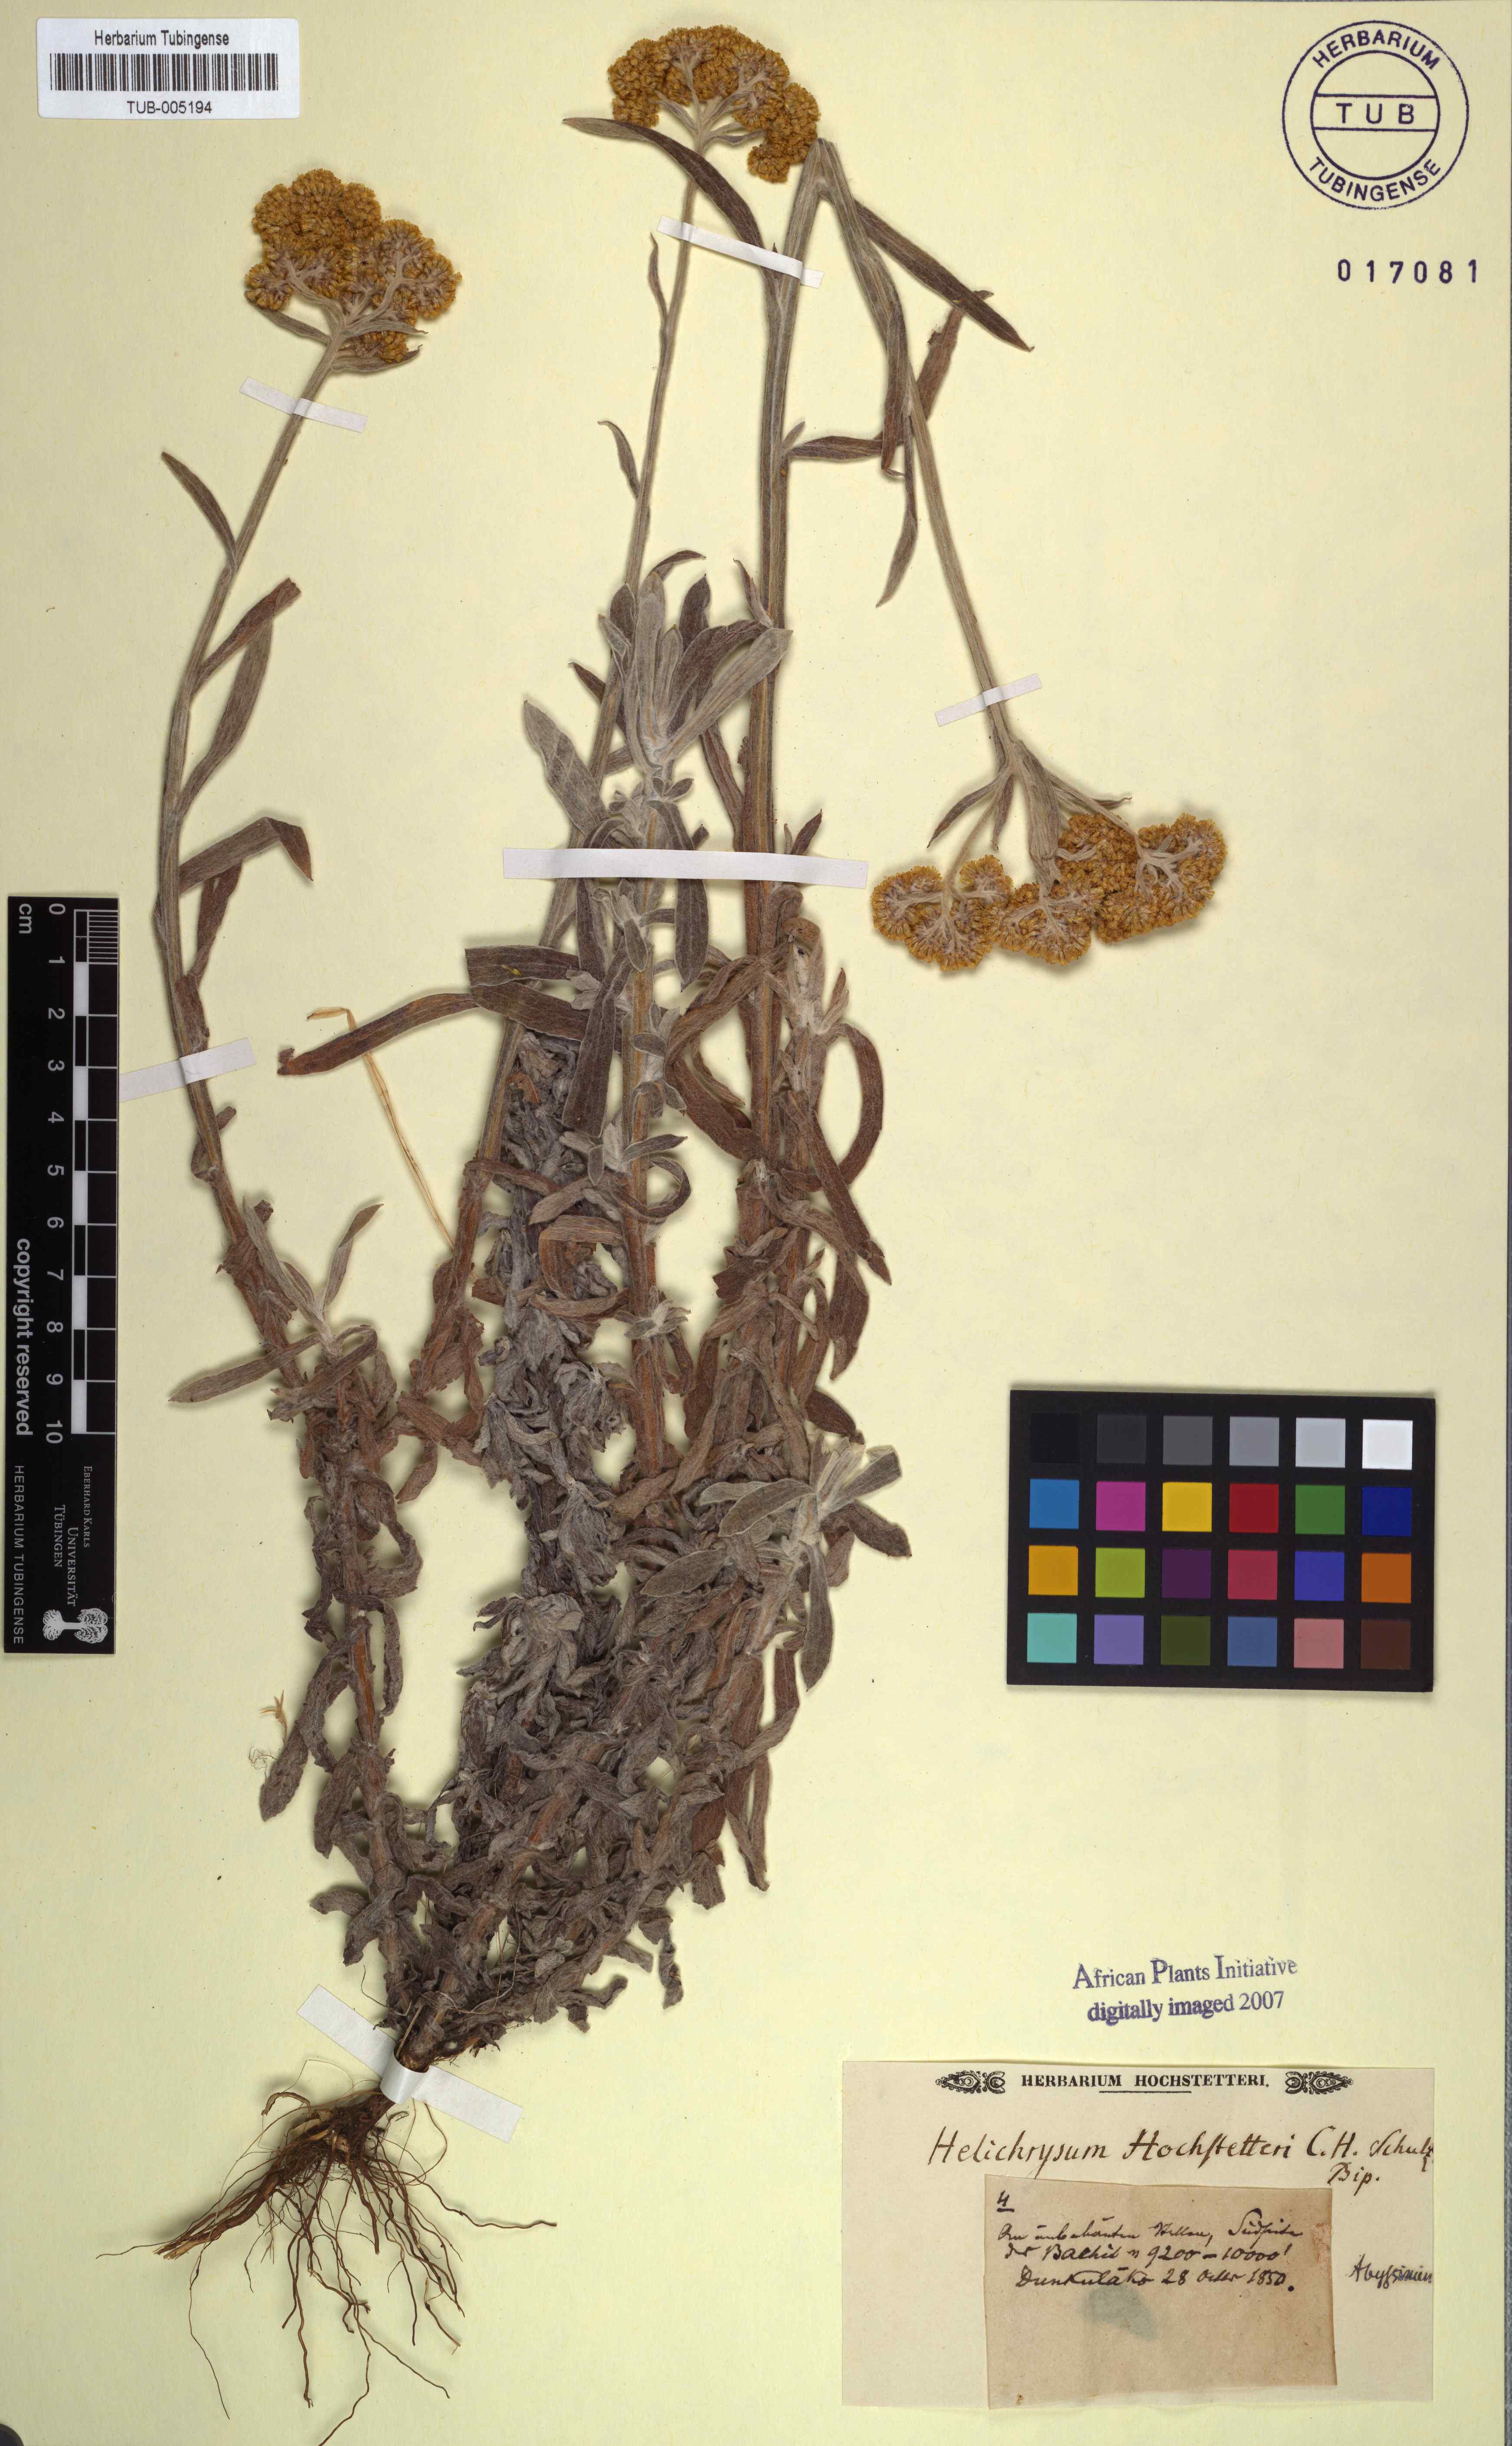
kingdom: Plantae
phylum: Tracheophyta
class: Magnoliopsida
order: Asterales
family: Asteraceae
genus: Helichrysum
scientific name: Helichrysum odoratissimum
